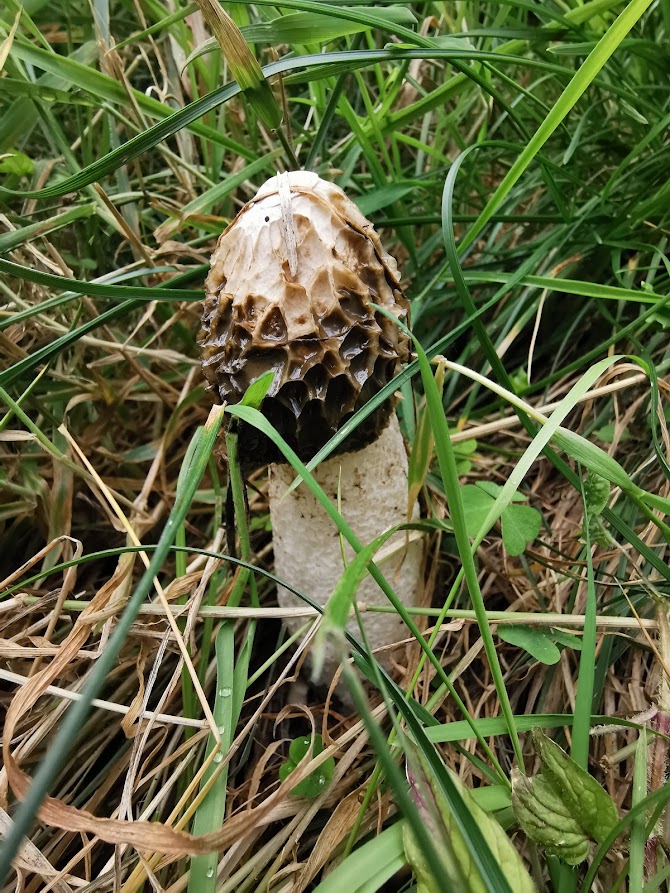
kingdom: Fungi
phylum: Basidiomycota
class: Agaricomycetes
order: Phallales
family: Phallaceae
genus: Phallus
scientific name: Phallus impudicus
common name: almindelig stinksvamp
